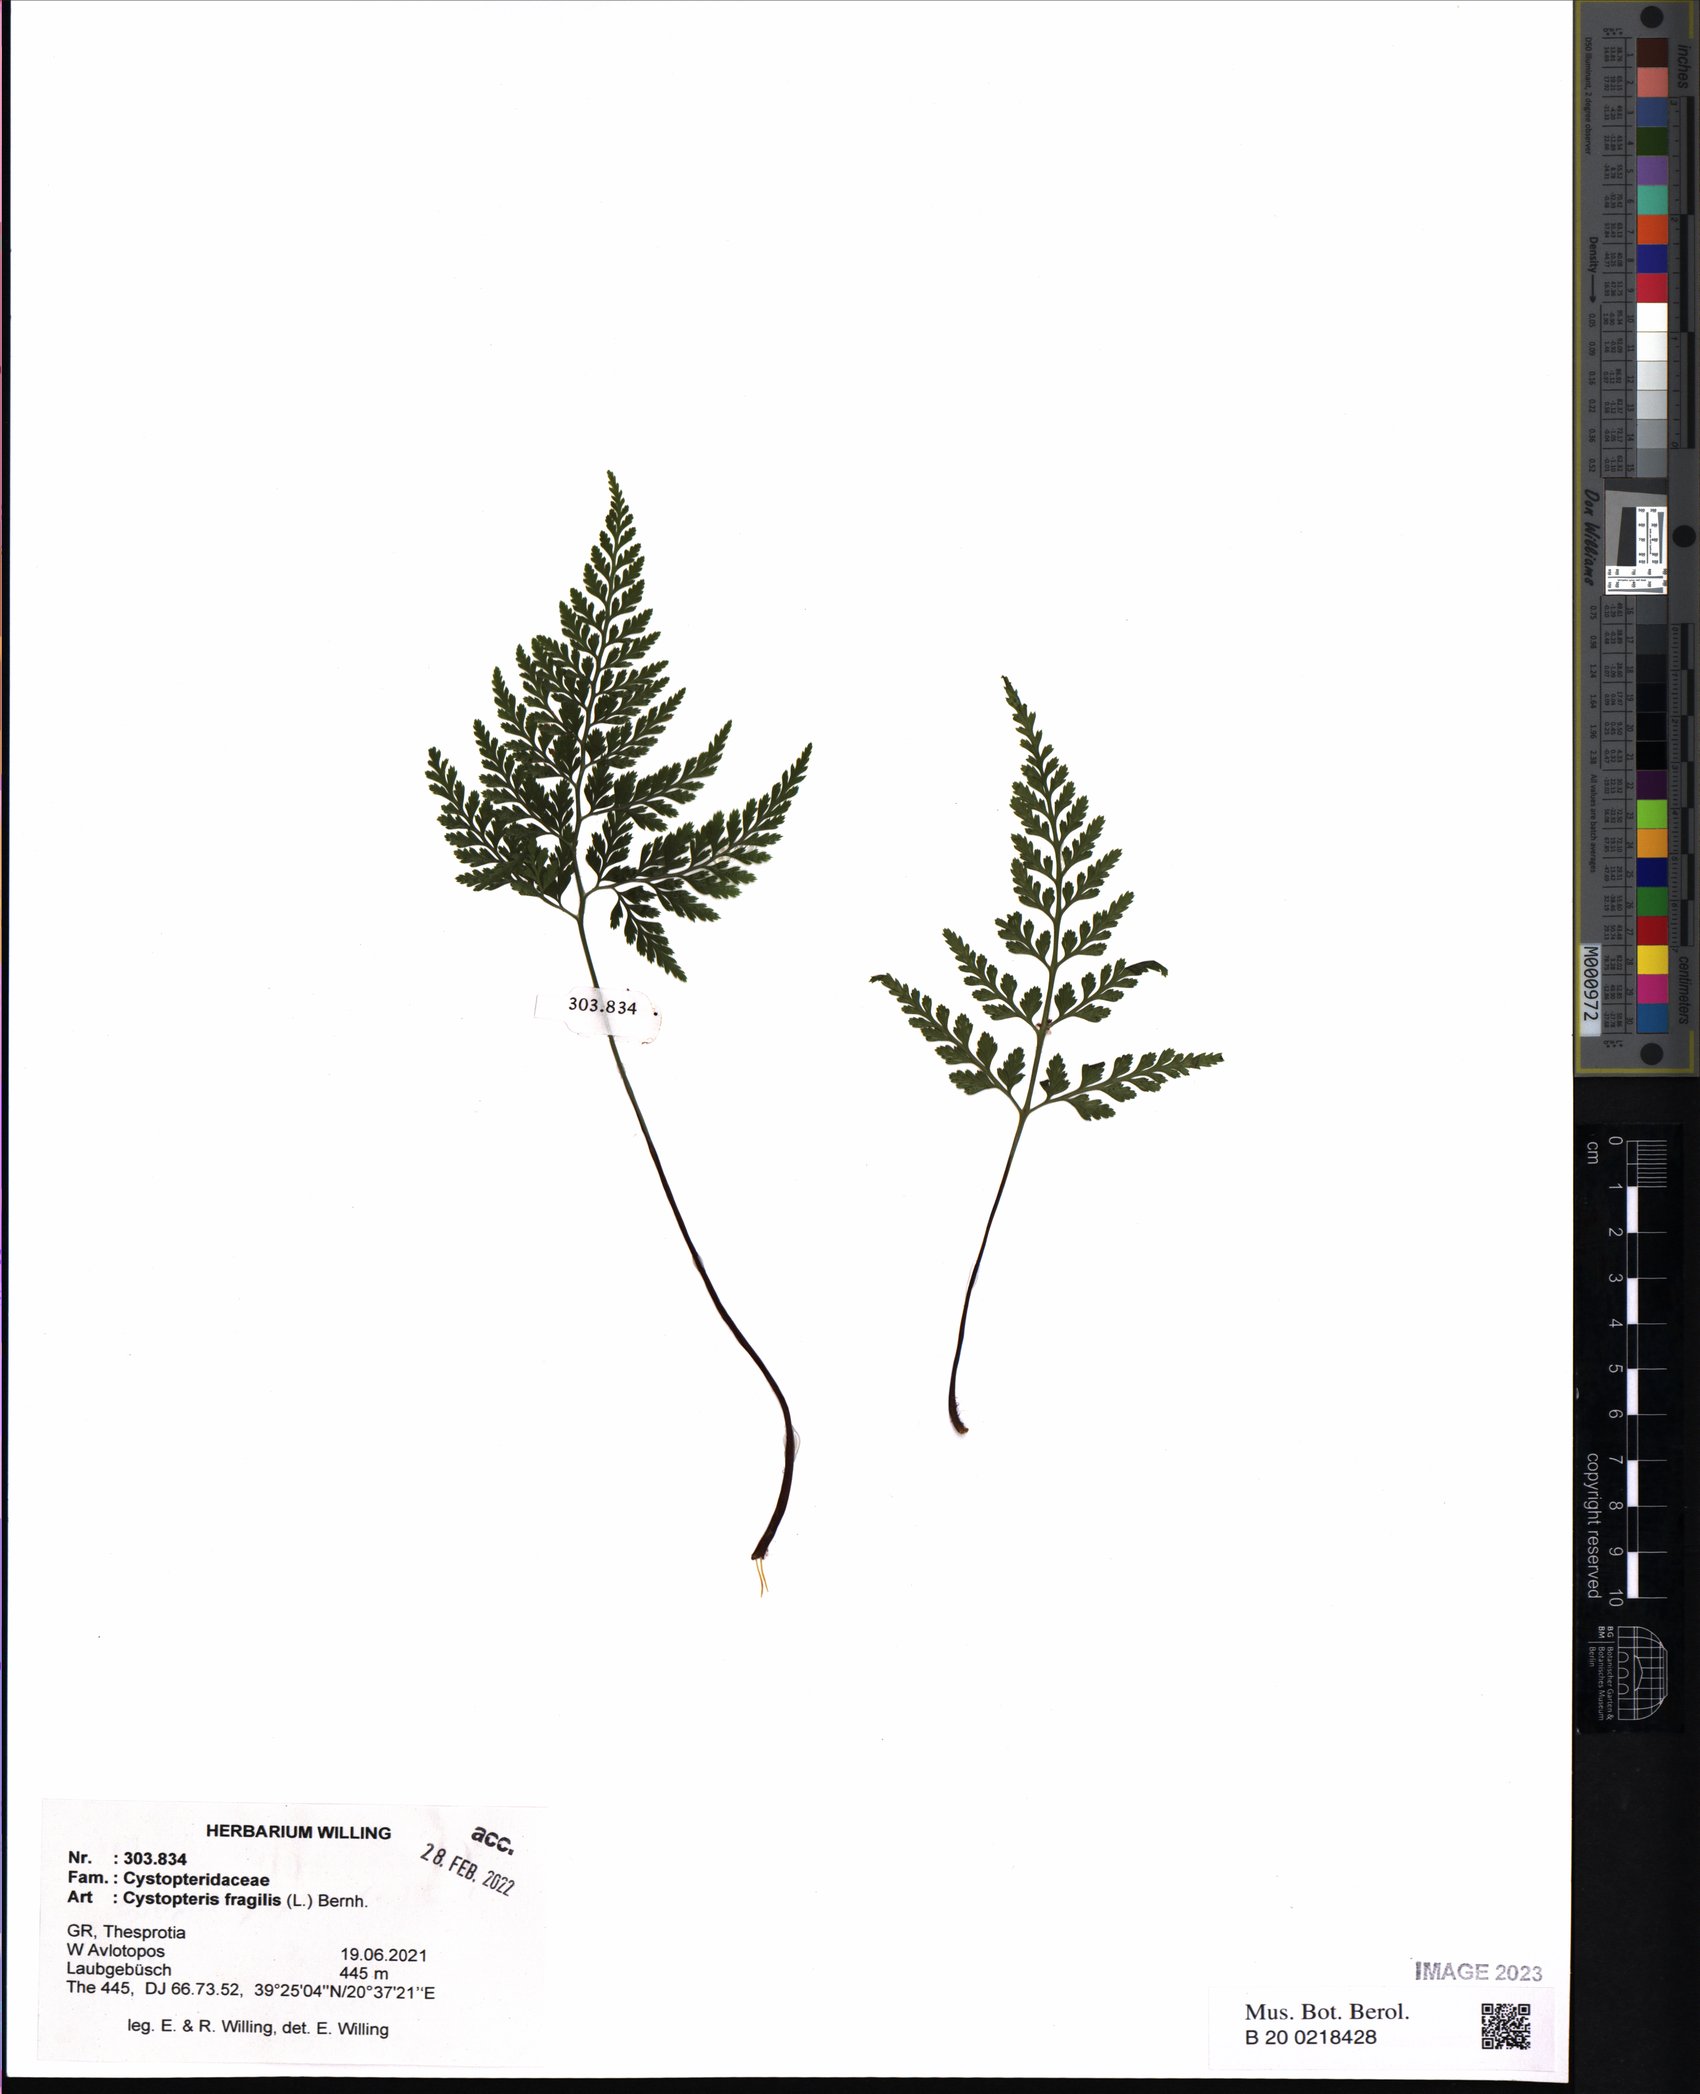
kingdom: Plantae
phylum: Tracheophyta
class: Polypodiopsida
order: Polypodiales
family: Cystopteridaceae
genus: Cystopteris
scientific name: Cystopteris fragilis
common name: Brittle bladder fern
